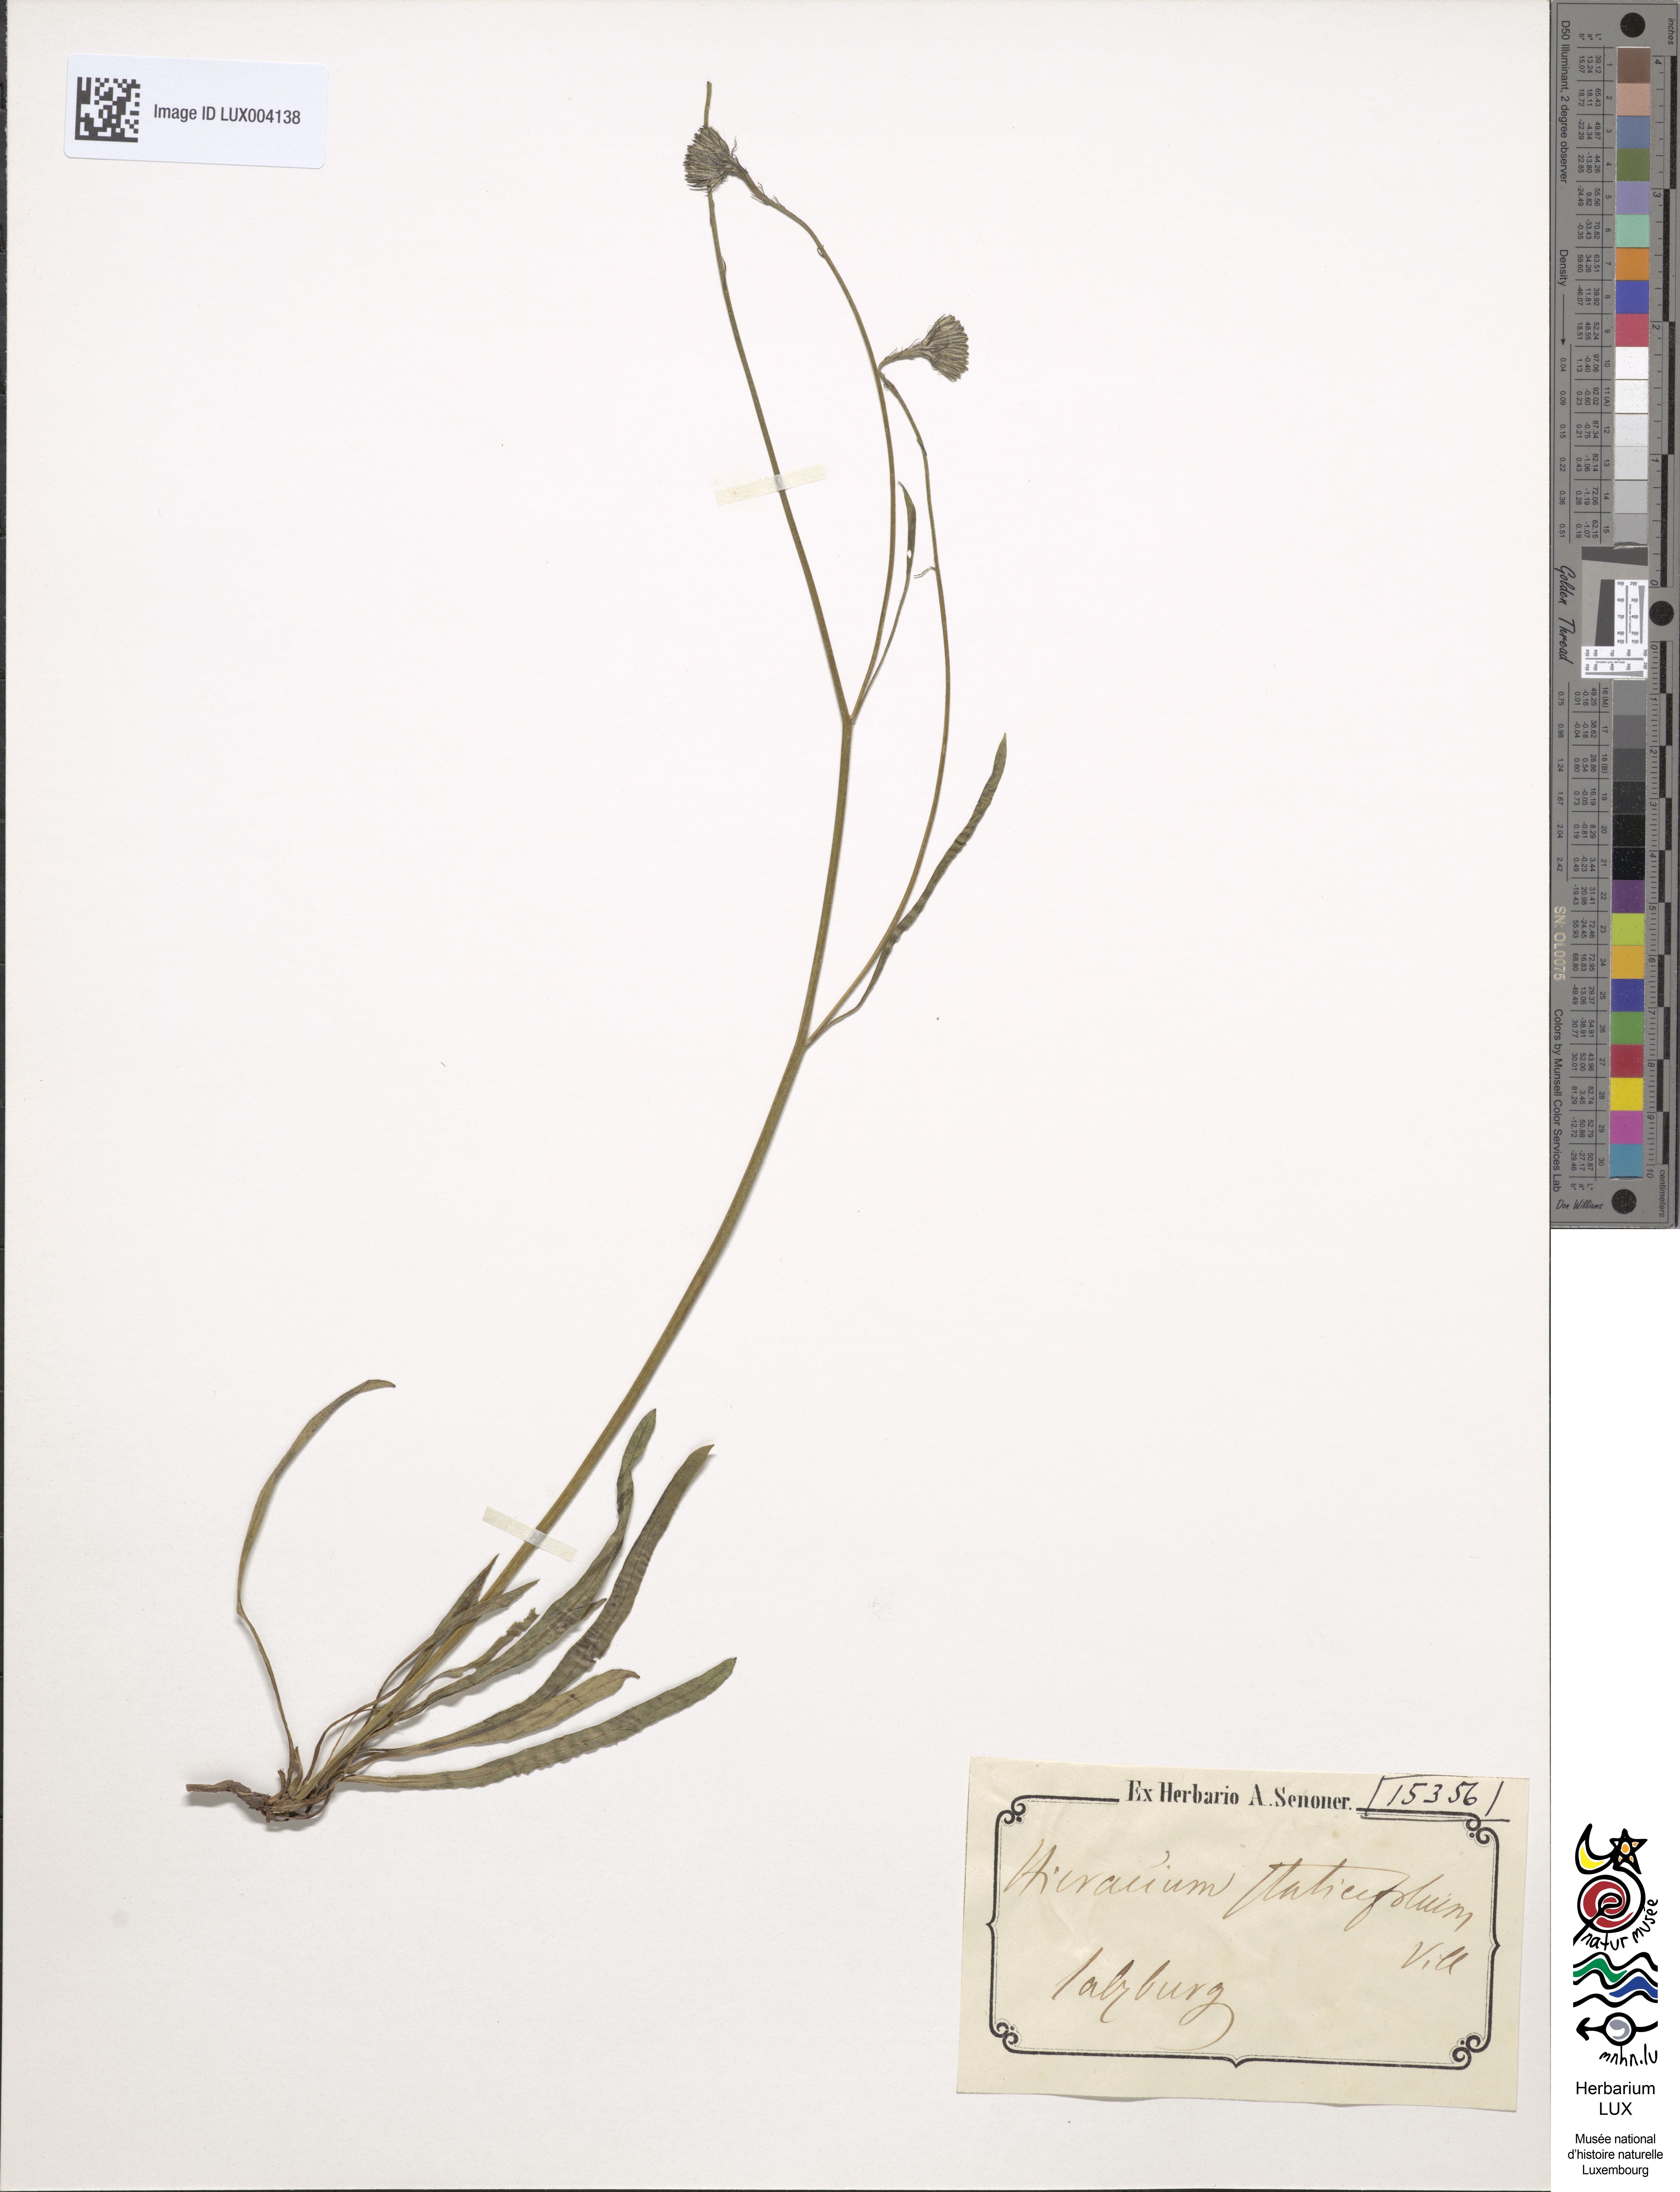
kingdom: Plantae
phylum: Tracheophyta
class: Magnoliopsida
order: Asterales
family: Asteraceae
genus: Tolpis
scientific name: Tolpis staticifolia
